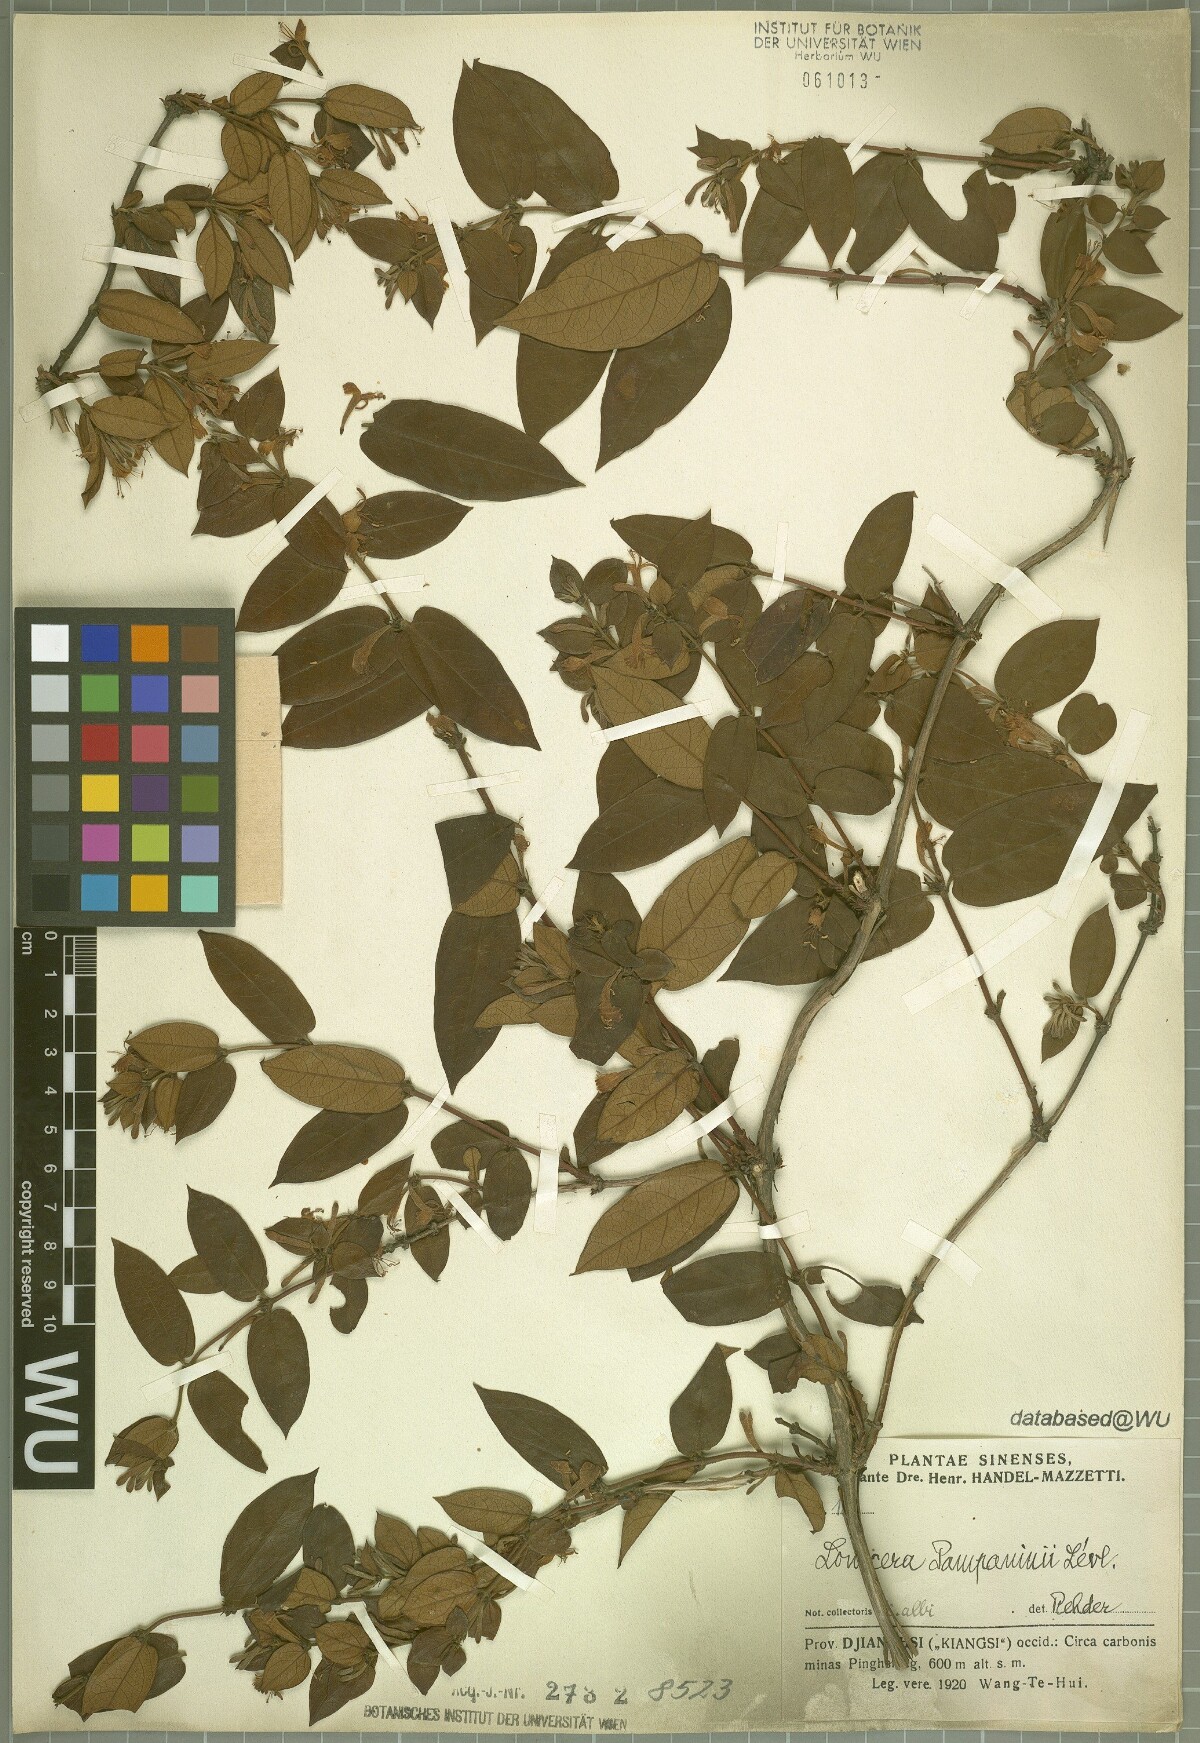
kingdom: Plantae
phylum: Tracheophyta
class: Magnoliopsida
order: Dipsacales
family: Caprifoliaceae
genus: Lonicera
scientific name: Lonicera pampaninii
